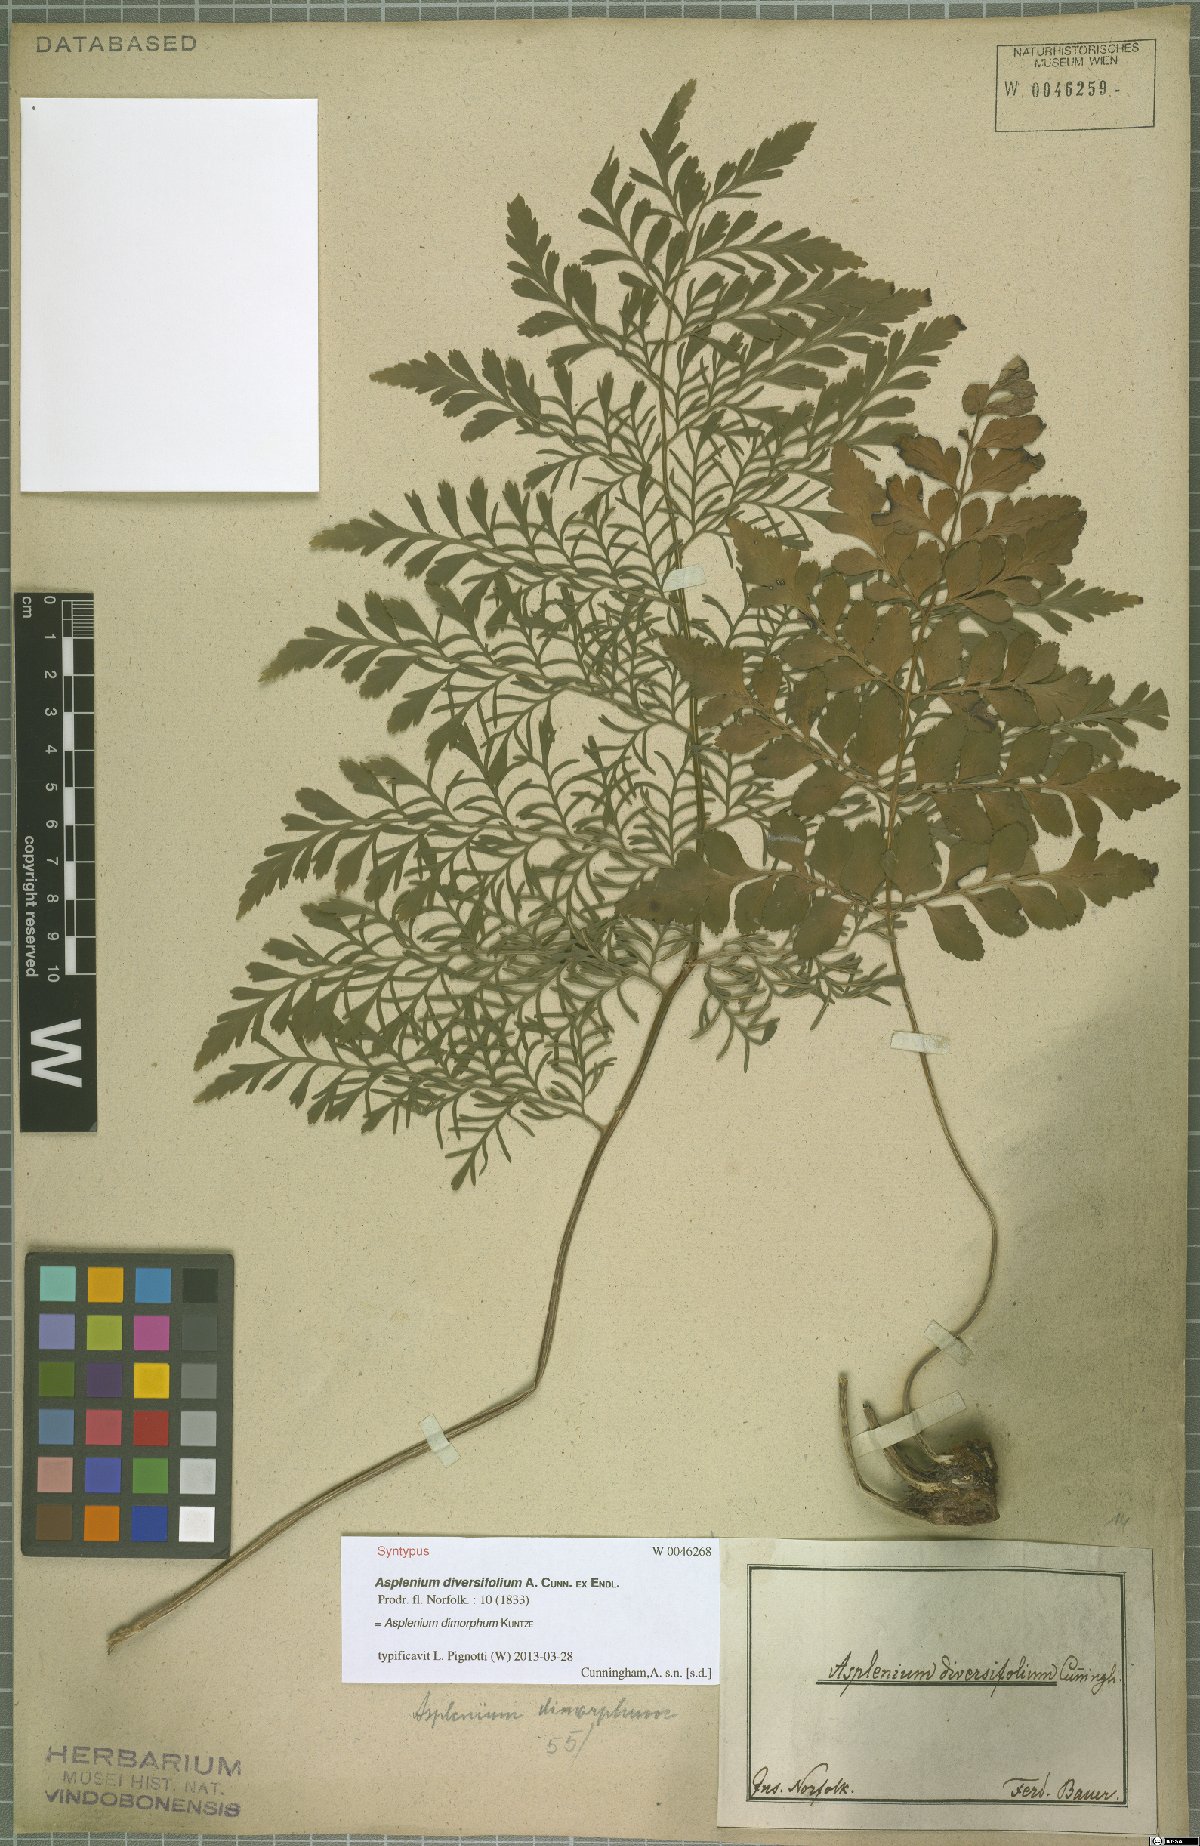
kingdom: Plantae
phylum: Tracheophyta
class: Polypodiopsida
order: Polypodiales
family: Aspleniaceae
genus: Asplenium
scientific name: Asplenium dimorphum
